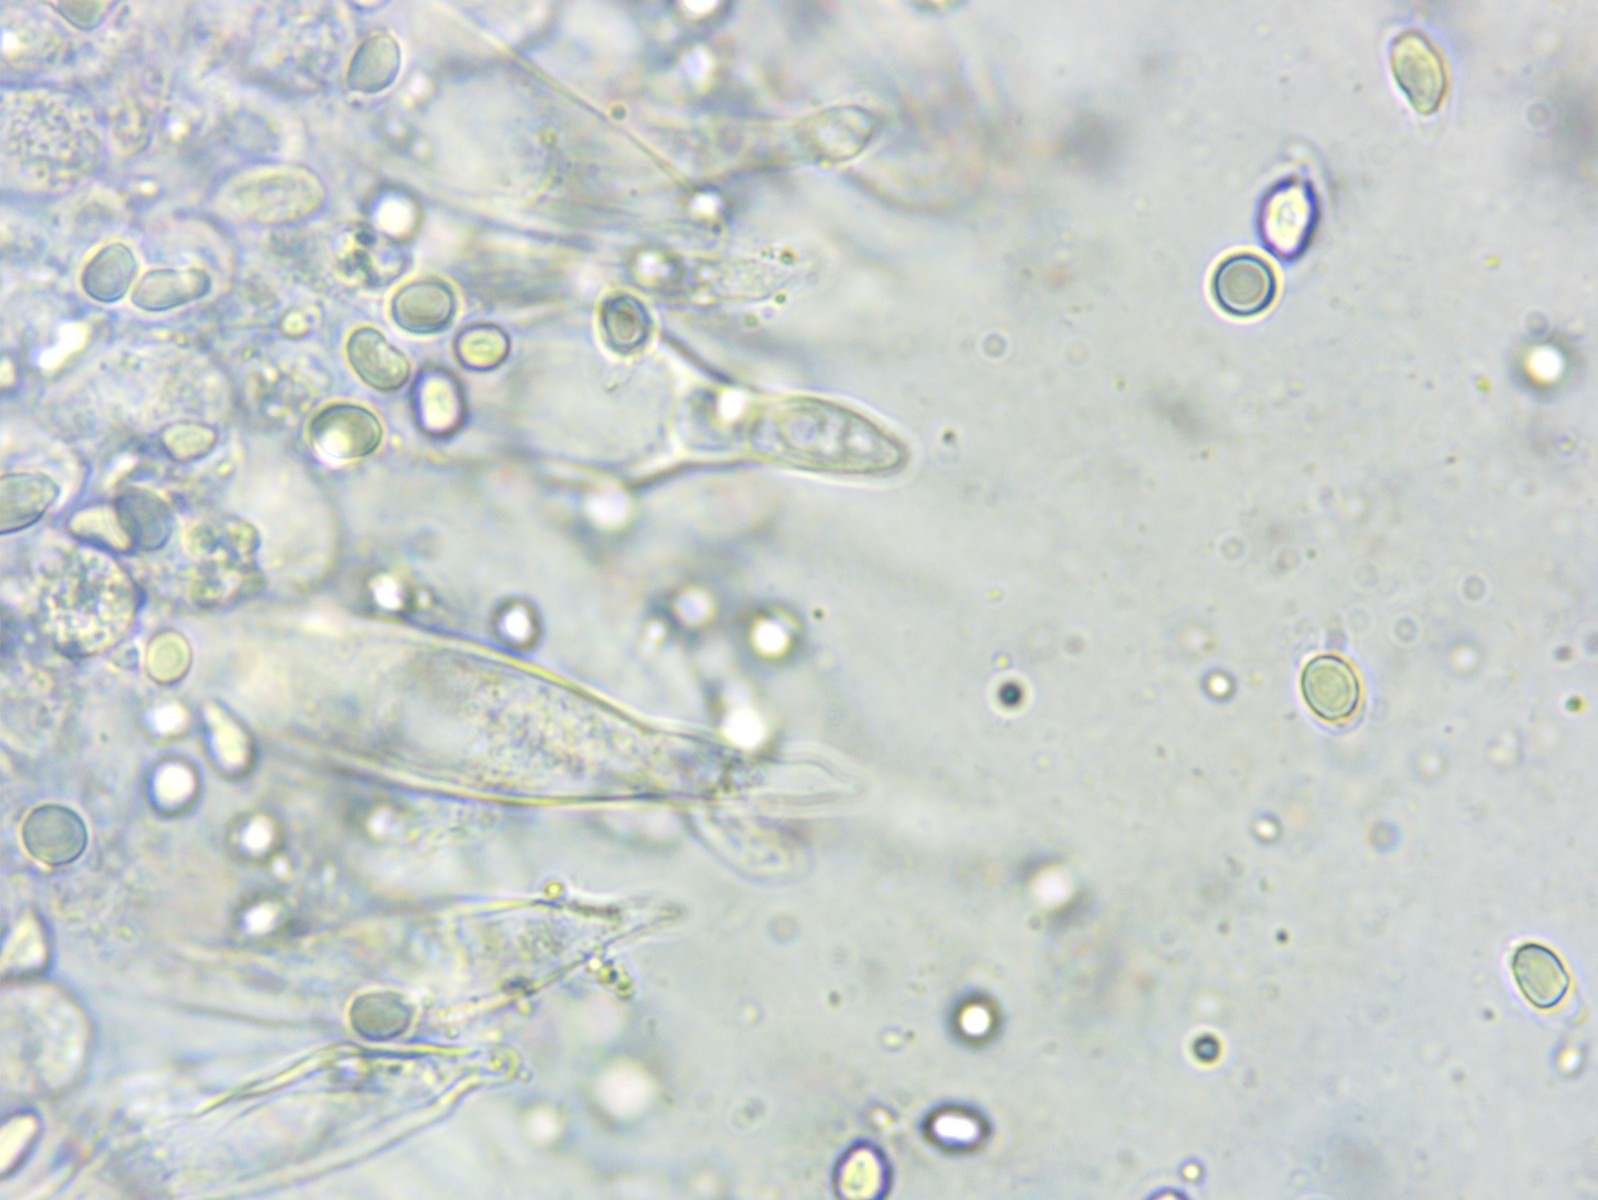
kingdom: Fungi
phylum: Basidiomycota
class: Agaricomycetes
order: Agaricales
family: Mycenaceae
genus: Mycena
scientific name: Mycena galopus
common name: hvidmælket huesvamp
